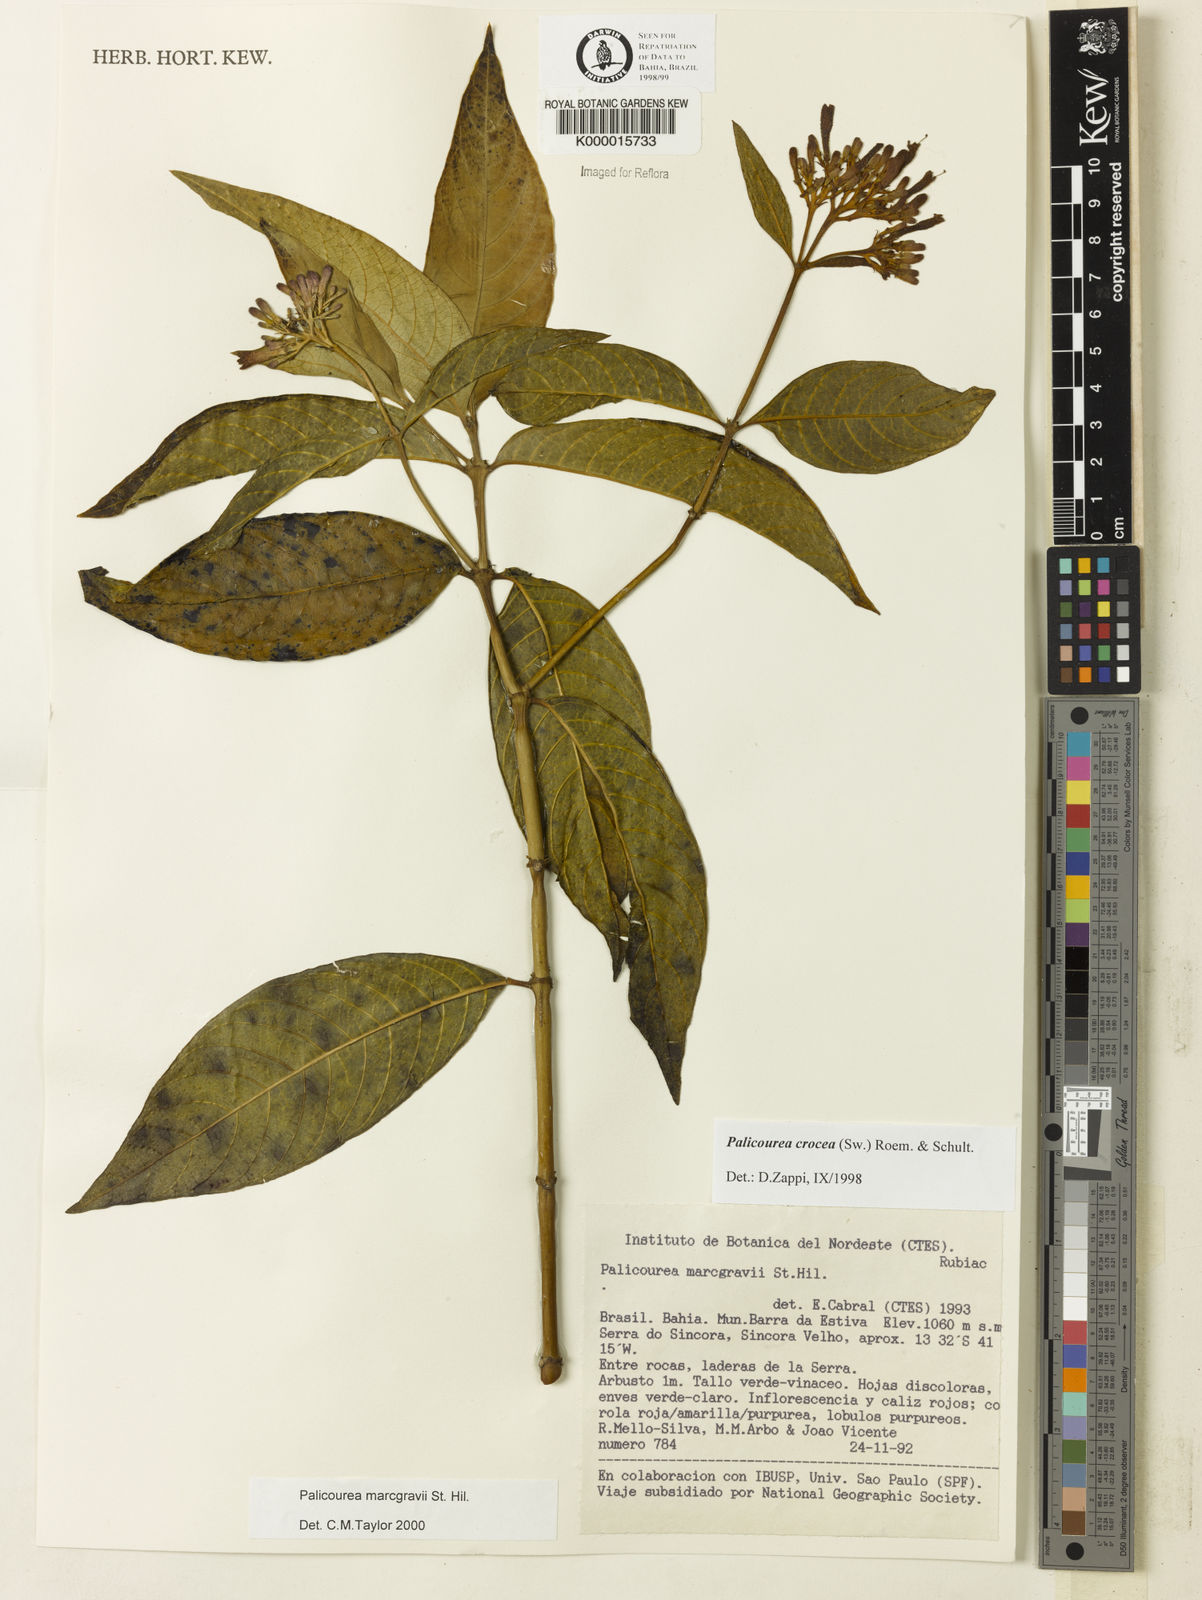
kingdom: Plantae
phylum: Tracheophyta
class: Magnoliopsida
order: Gentianales
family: Rubiaceae
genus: Palicourea
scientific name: Palicourea marcgravii
